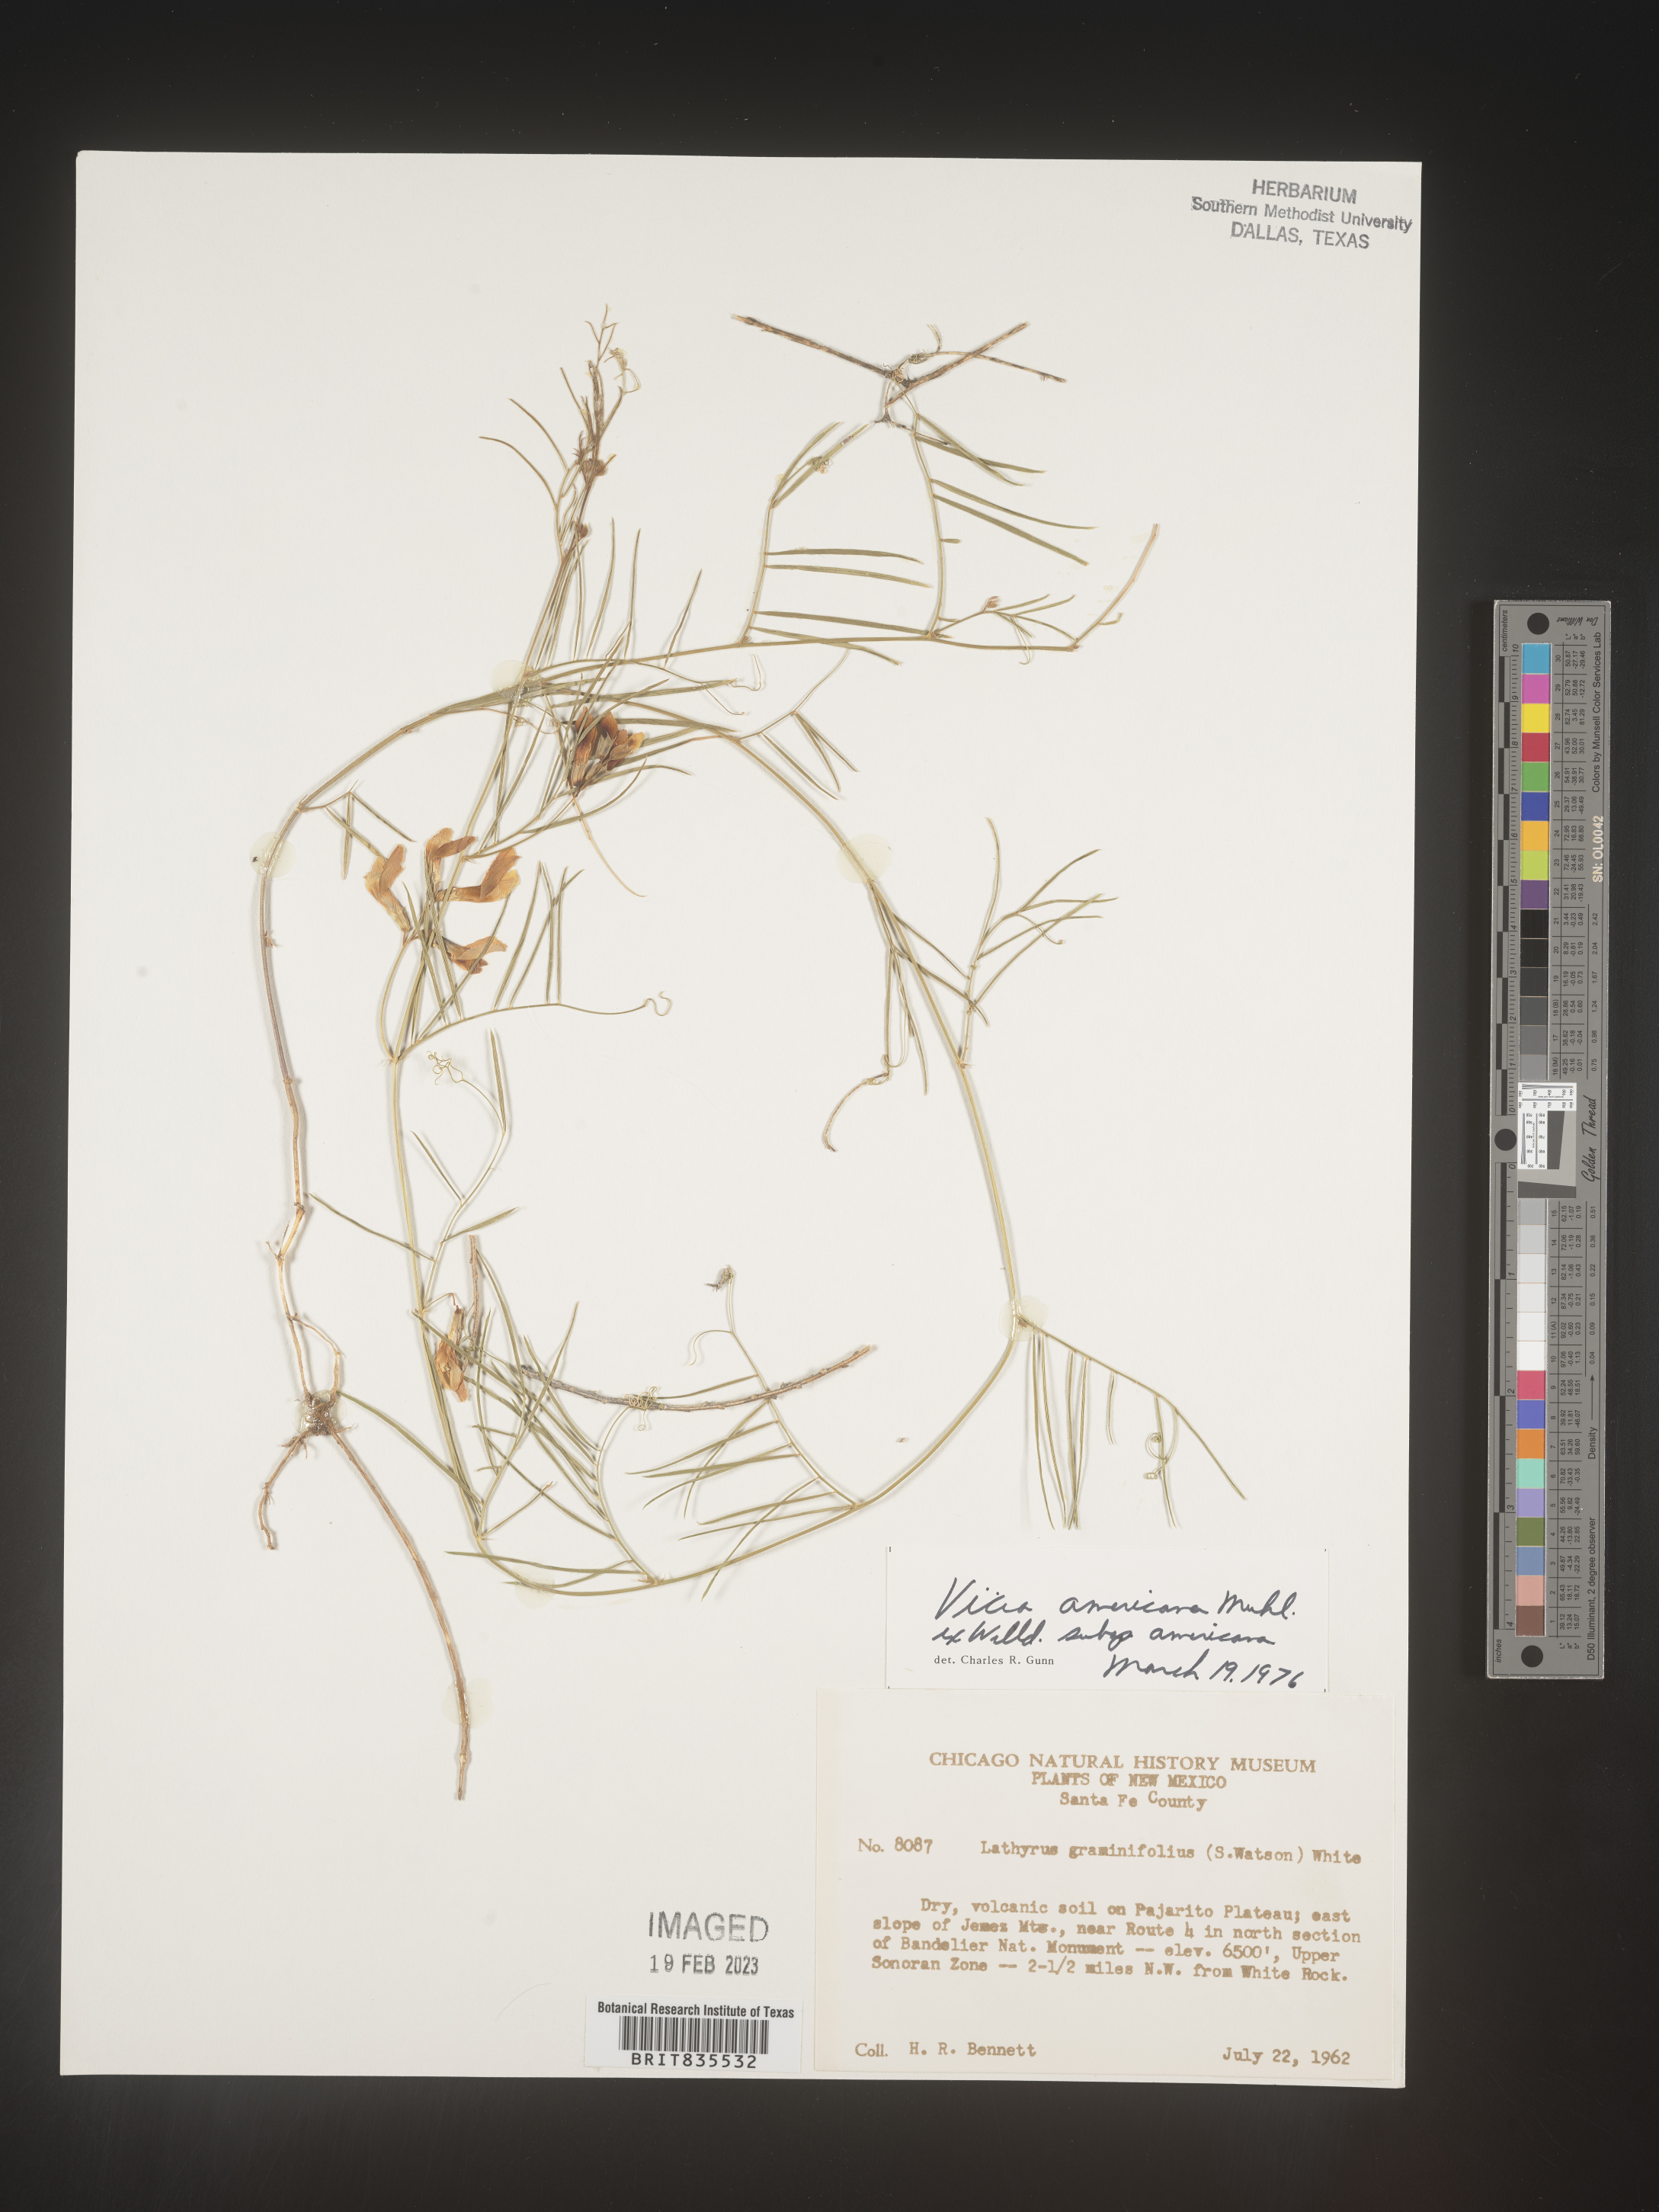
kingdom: Plantae
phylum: Tracheophyta
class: Magnoliopsida
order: Fabales
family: Fabaceae
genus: Vicia
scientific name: Vicia americana
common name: American vetch
